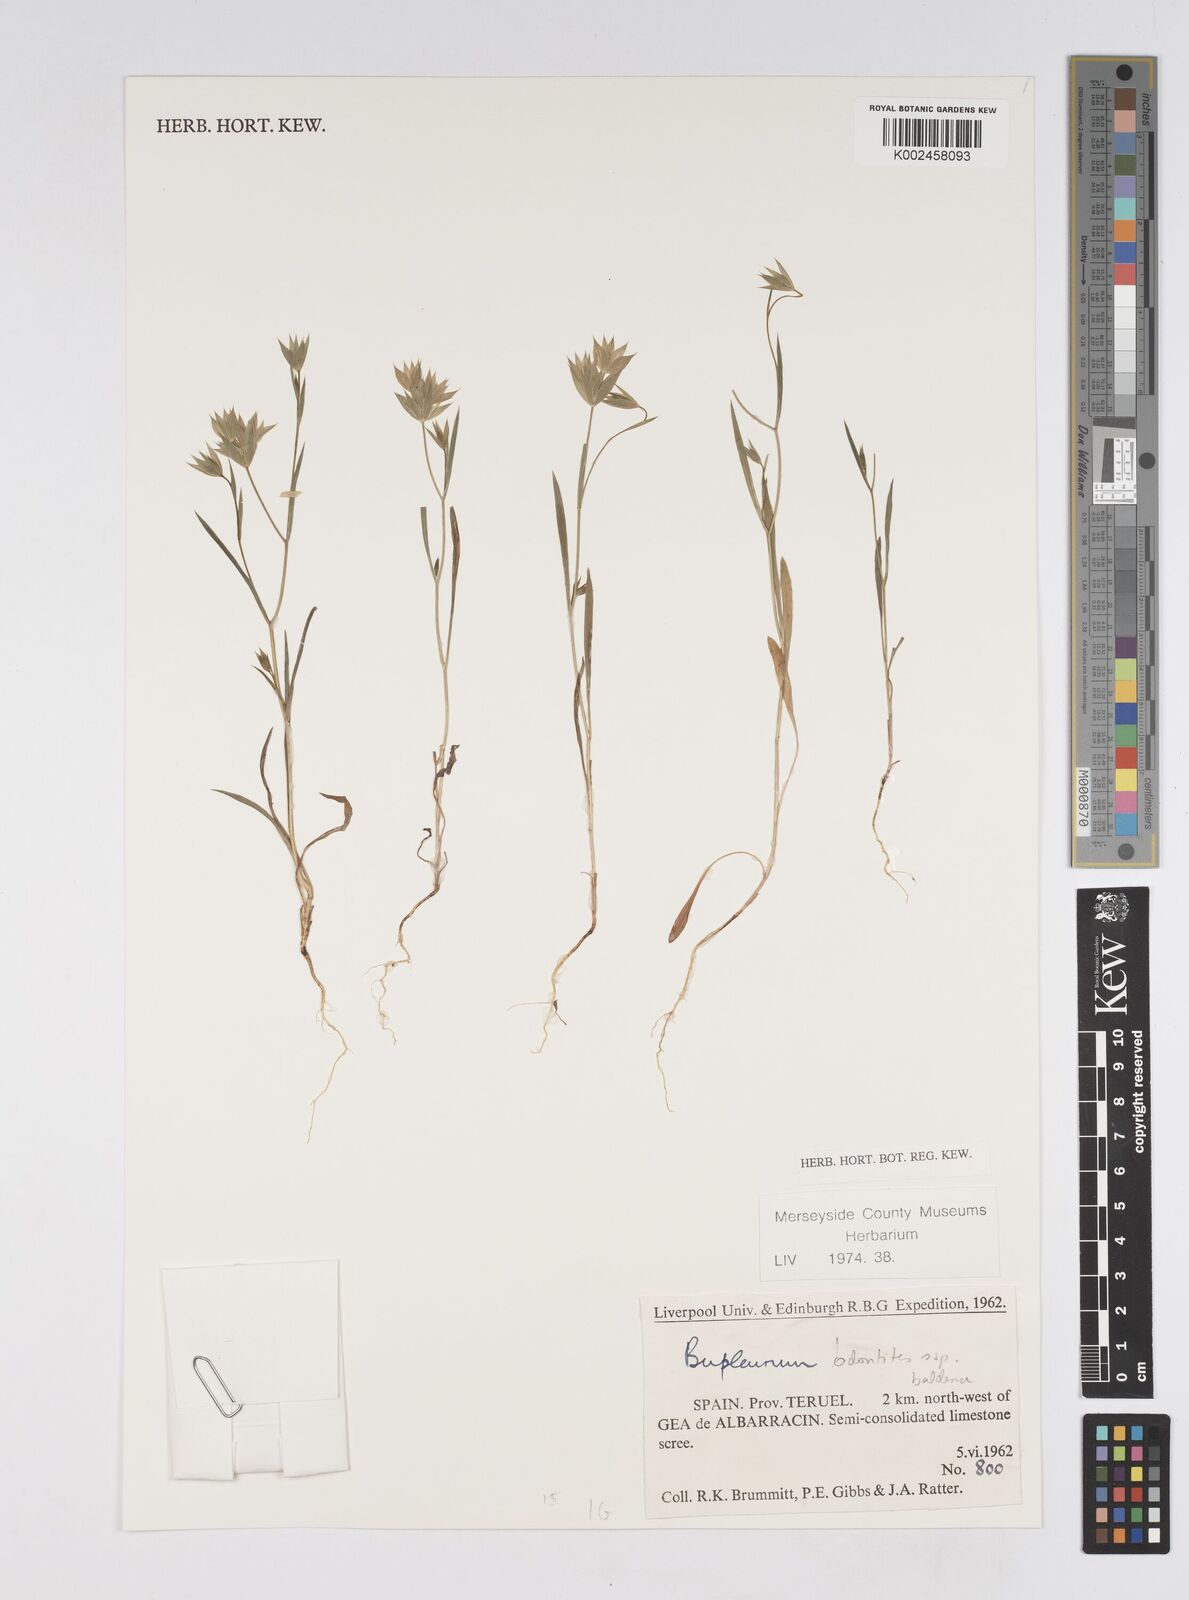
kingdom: Plantae
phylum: Tracheophyta
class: Magnoliopsida
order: Apiales
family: Apiaceae
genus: Bupleurum
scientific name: Bupleurum baldense
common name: Small hare's-ear
